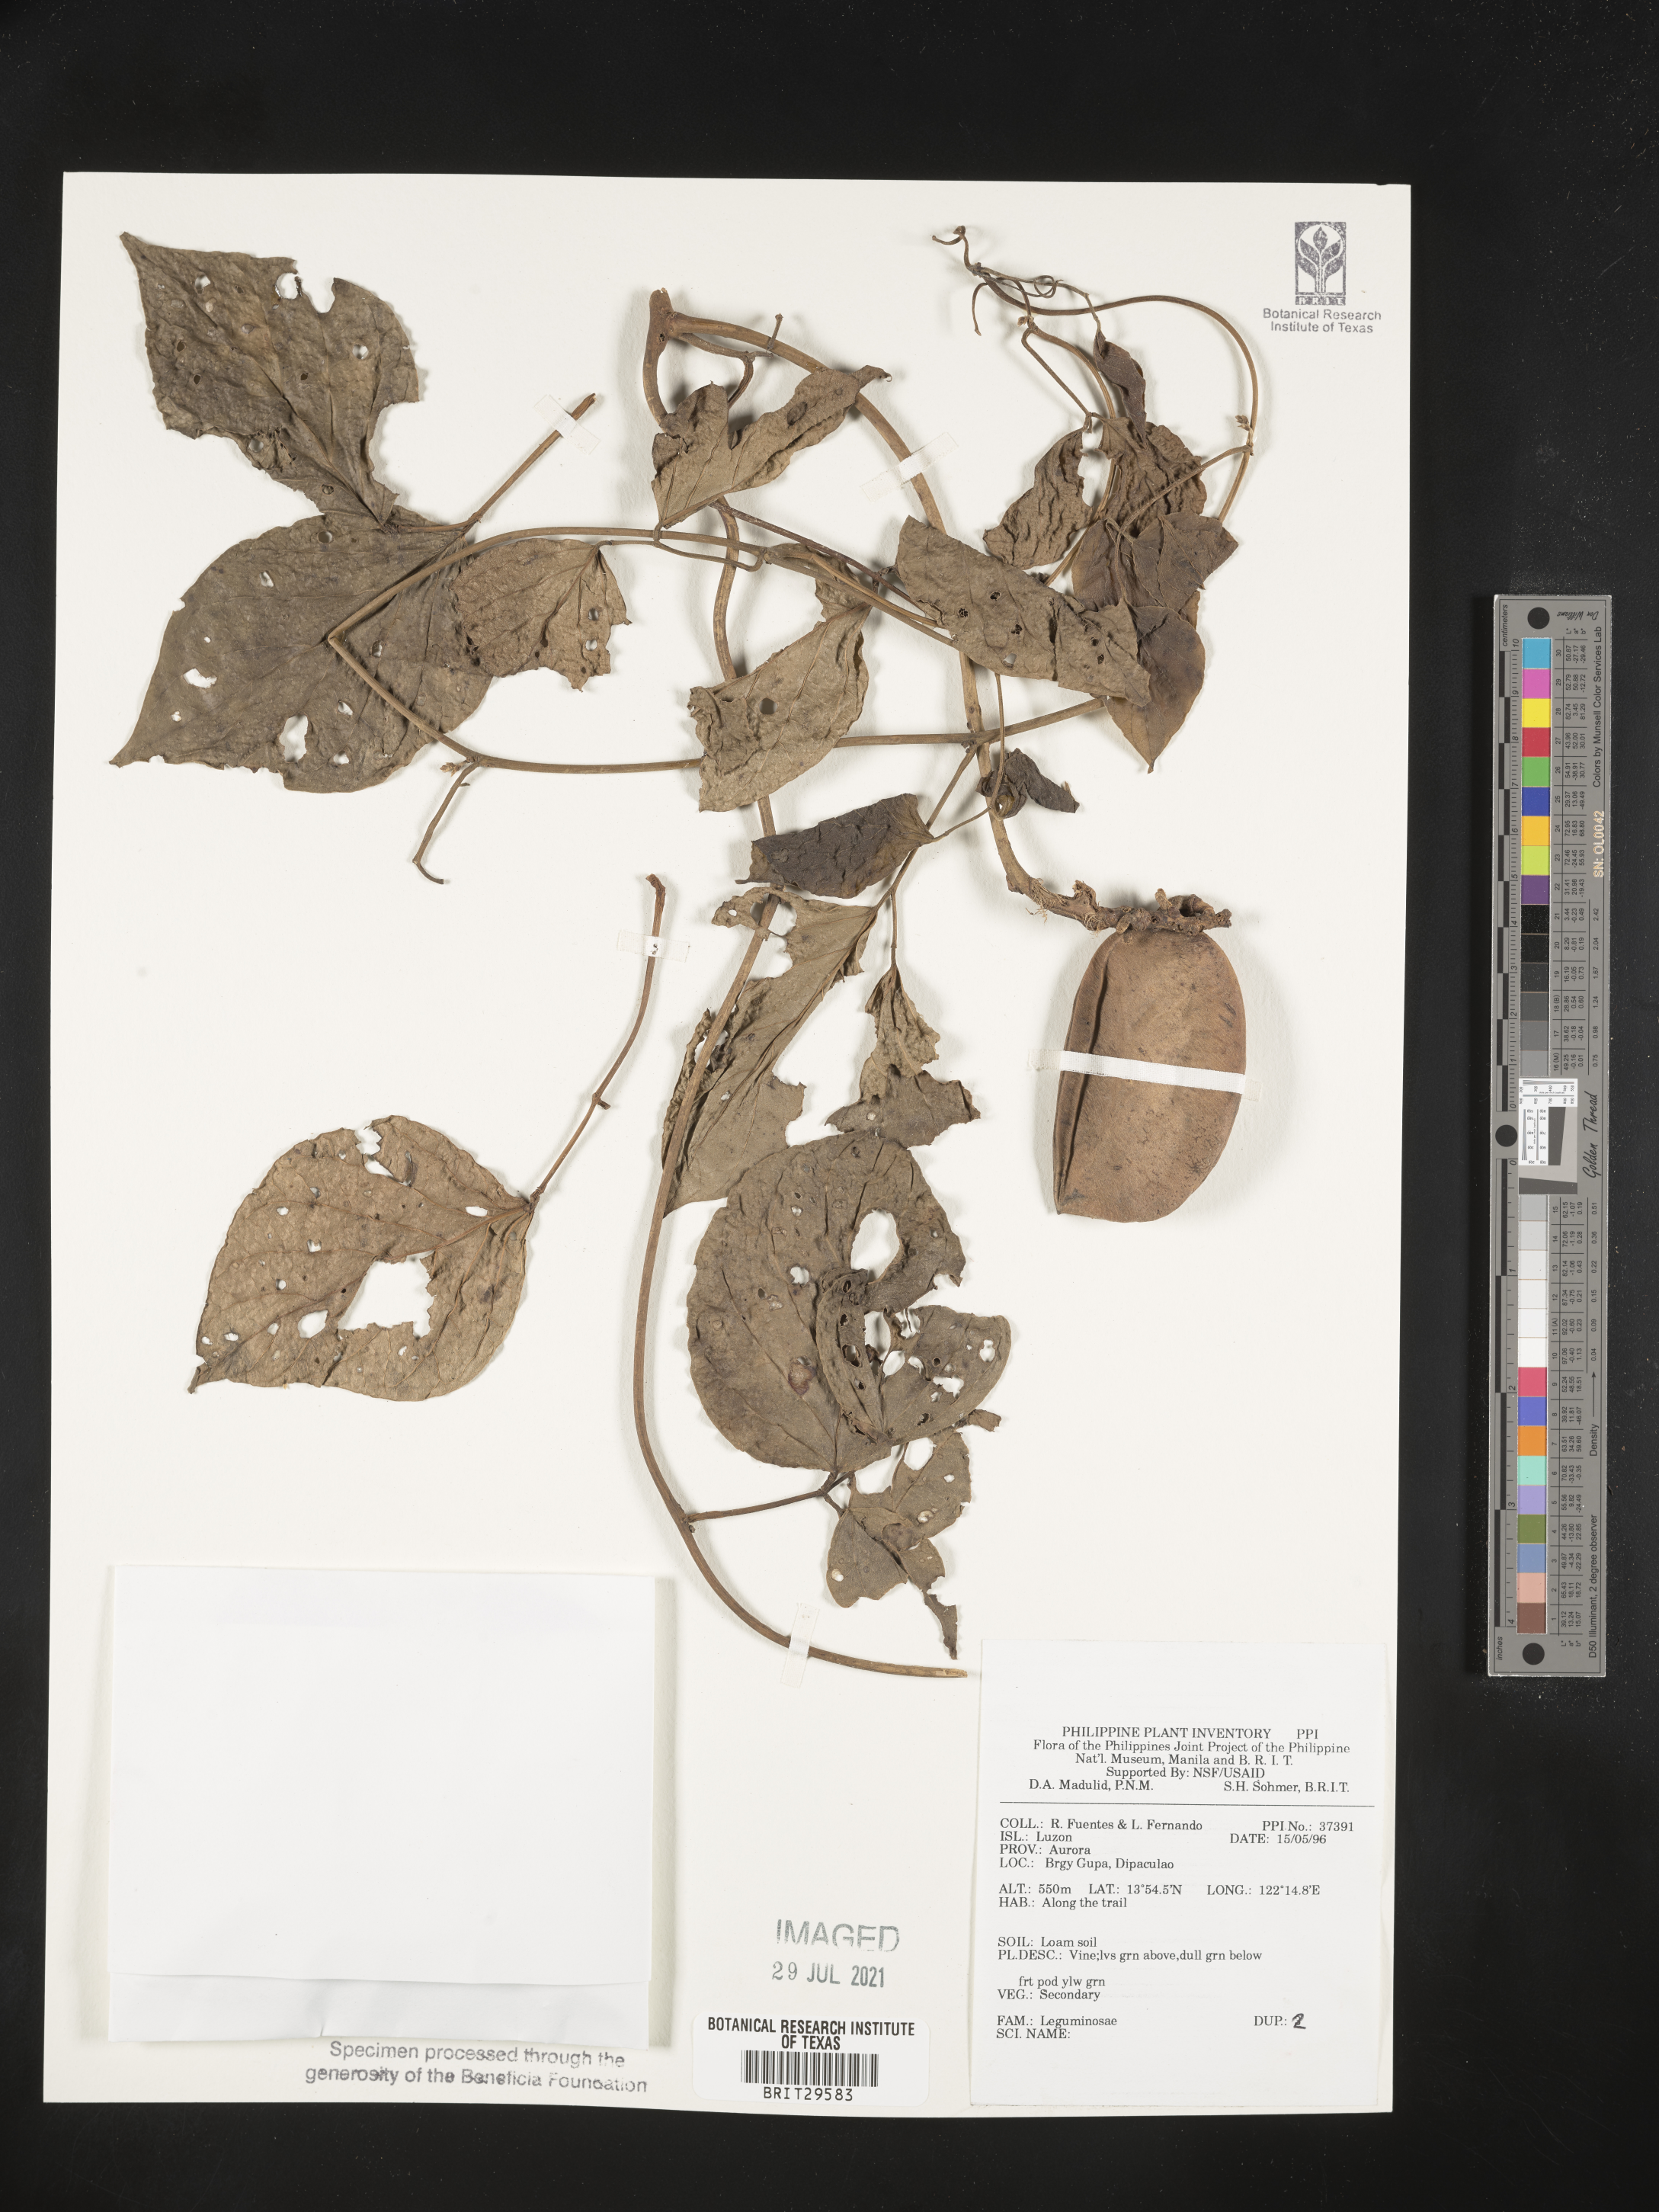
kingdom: Plantae
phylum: Tracheophyta
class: Magnoliopsida
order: Fabales
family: Fabaceae
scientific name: Fabaceae
